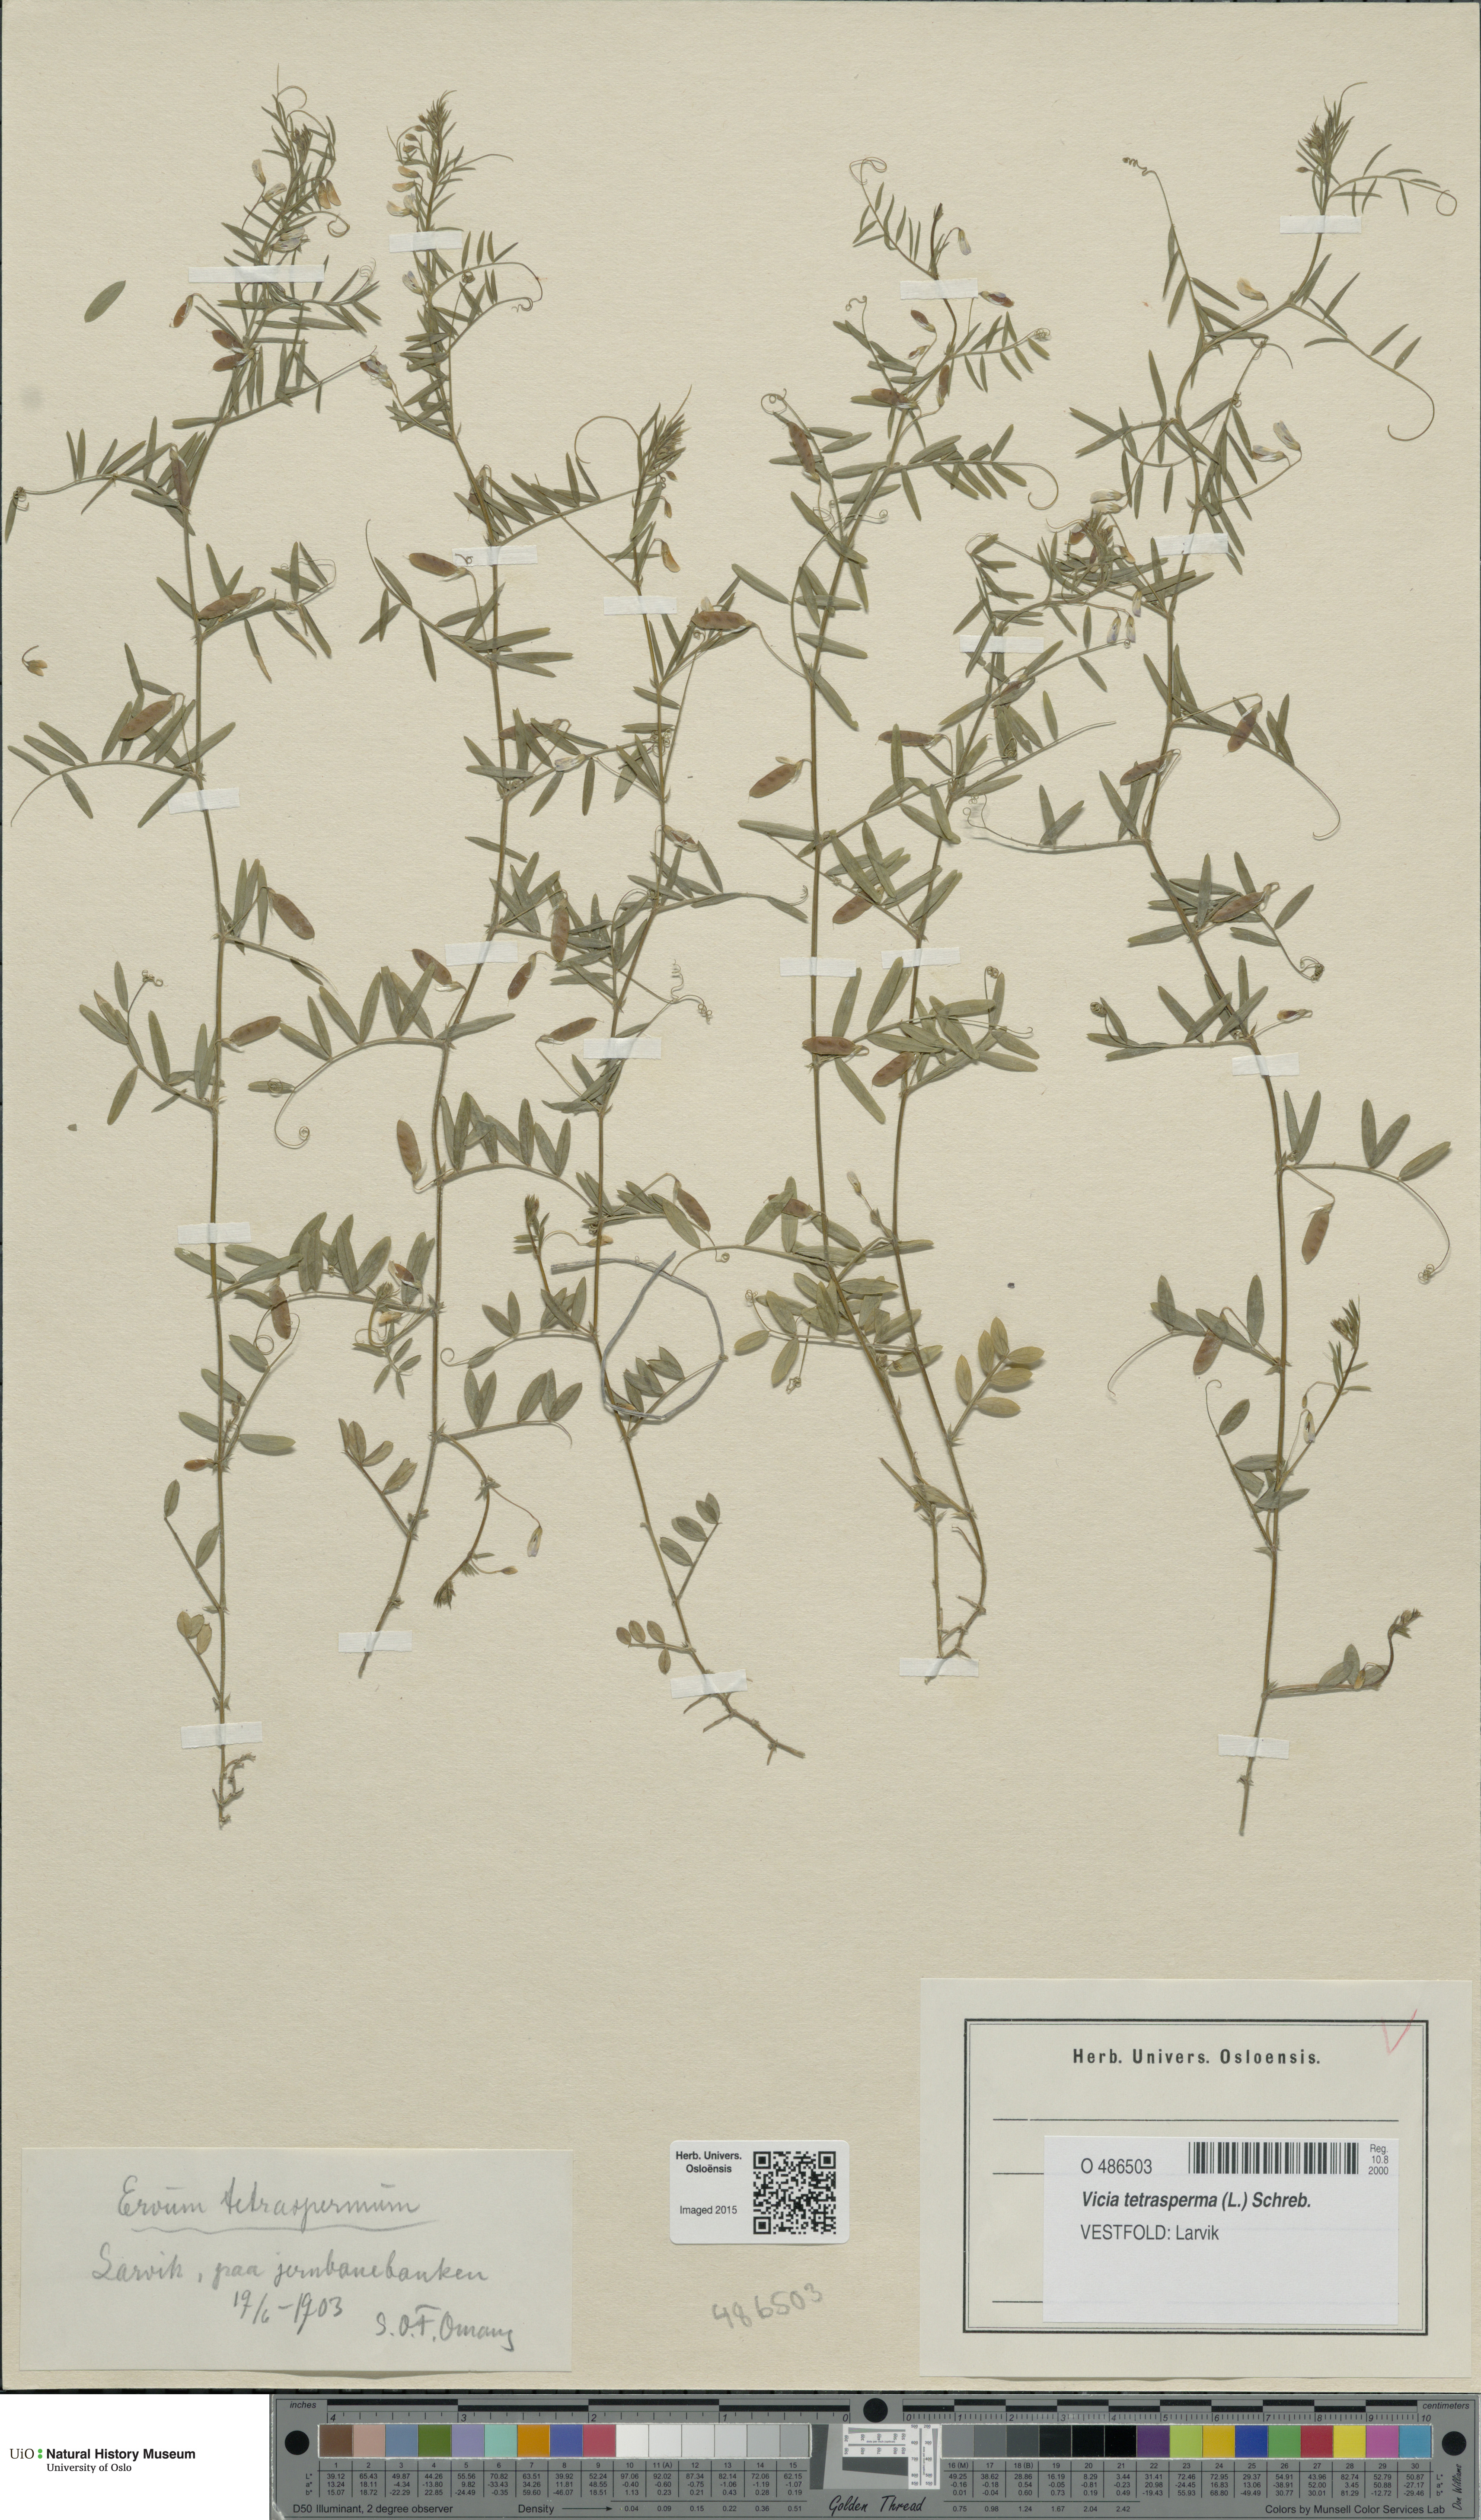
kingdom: Plantae
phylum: Tracheophyta
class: Magnoliopsida
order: Fabales
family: Fabaceae
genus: Vicia
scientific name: Vicia tetrasperma
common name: Smooth tare
